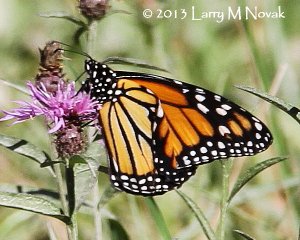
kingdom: Animalia
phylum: Arthropoda
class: Insecta
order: Lepidoptera
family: Nymphalidae
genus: Danaus
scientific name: Danaus plexippus
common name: Monarch
